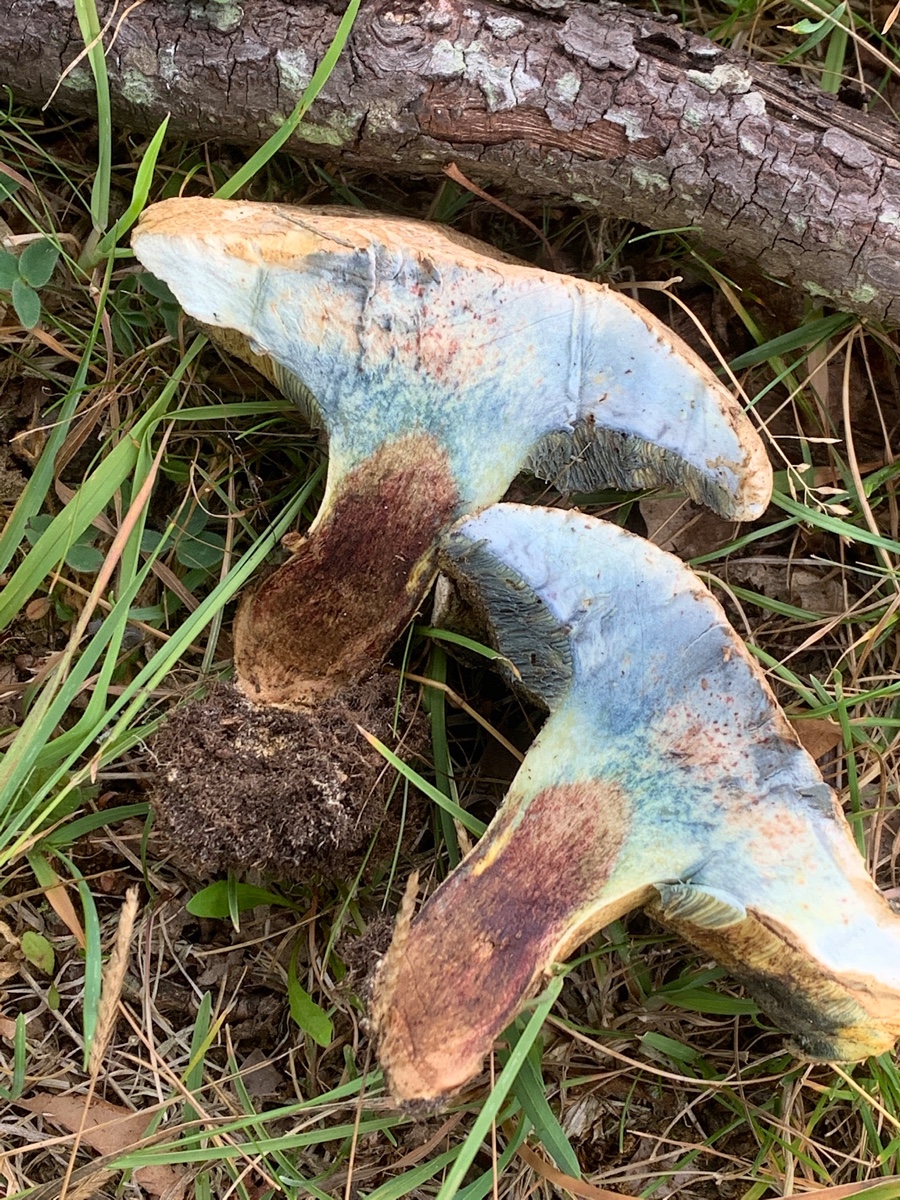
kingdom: Fungi
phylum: Basidiomycota
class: Agaricomycetes
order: Boletales
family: Boletaceae
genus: Caloboletus
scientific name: Caloboletus radicans
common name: rod-rørhat
